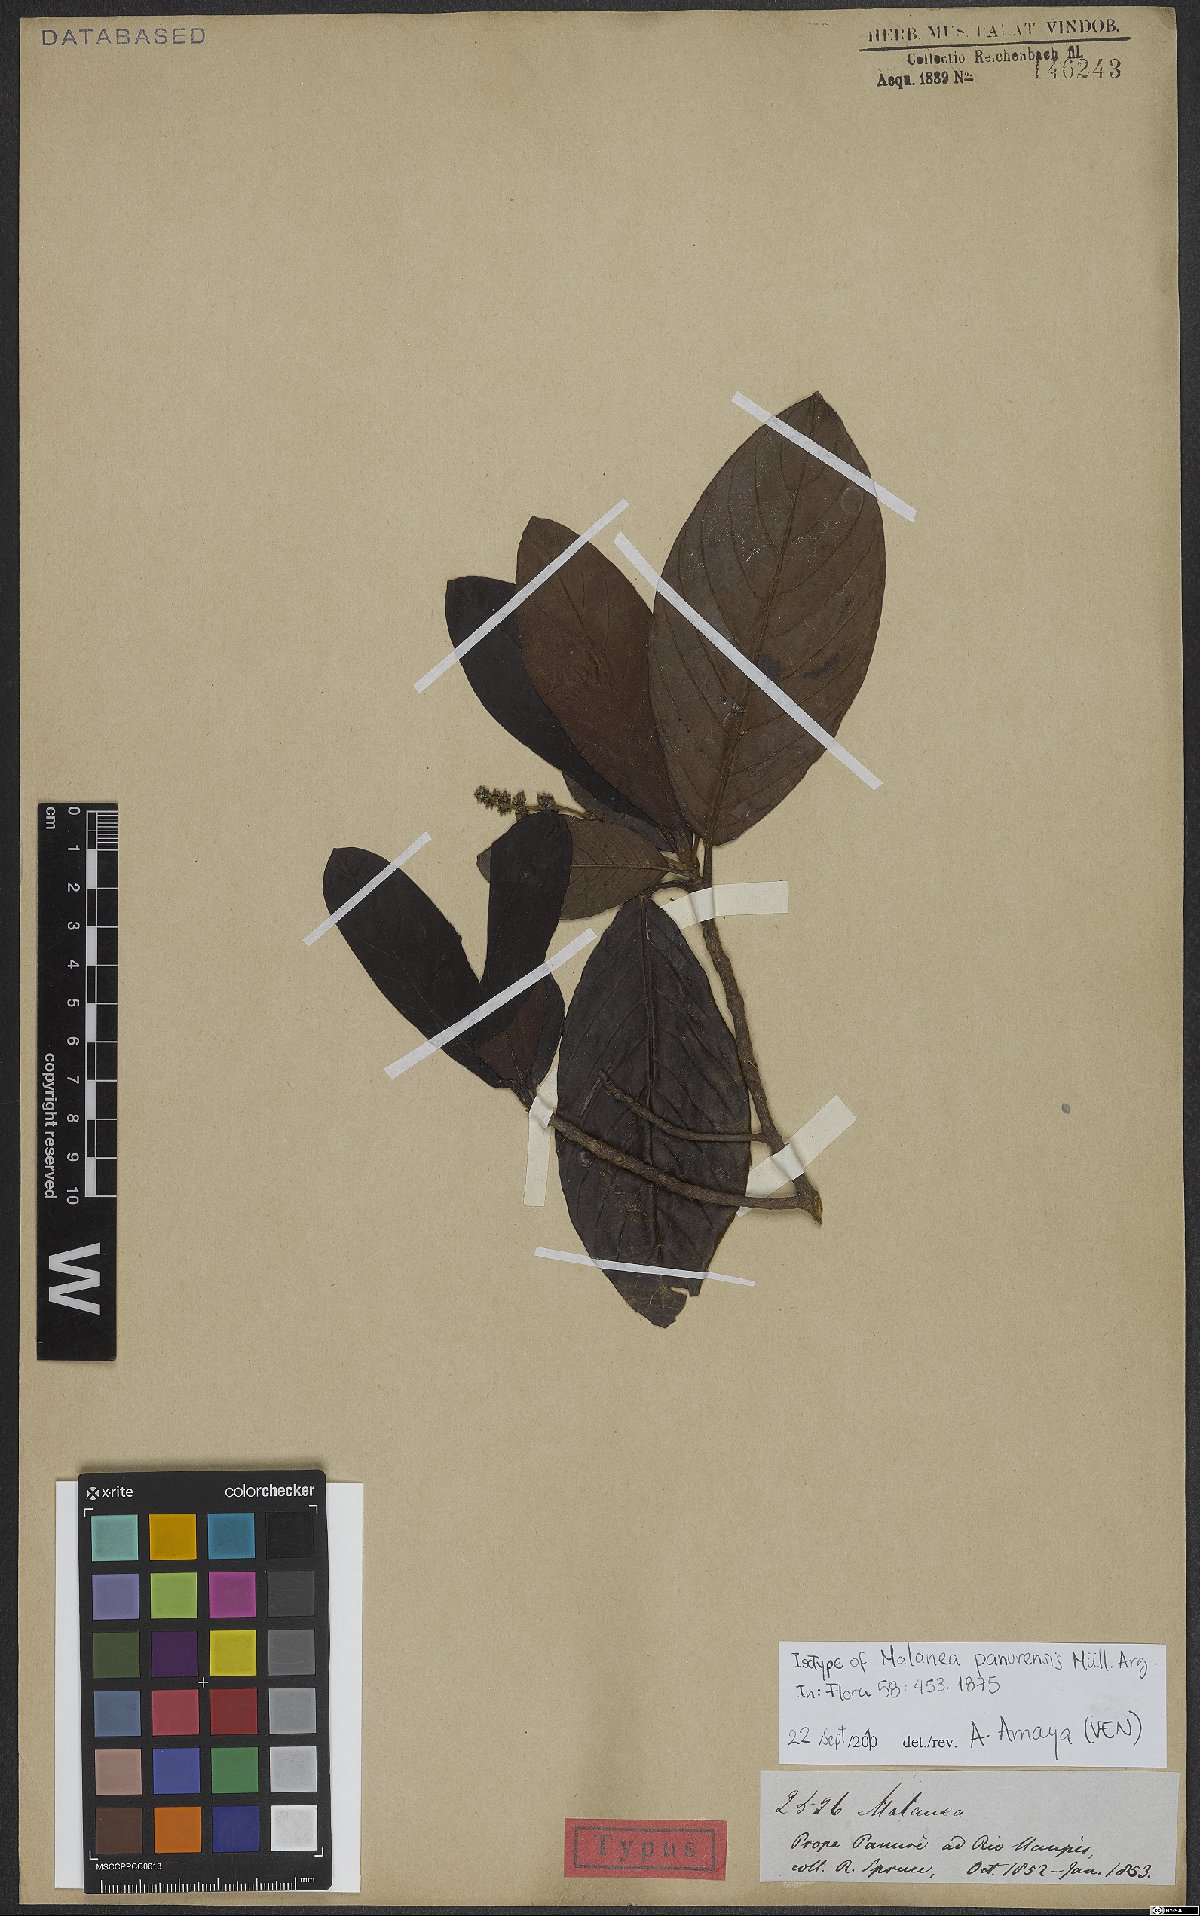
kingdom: Plantae
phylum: Tracheophyta
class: Magnoliopsida
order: Gentianales
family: Rubiaceae
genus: Malanea
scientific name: Malanea panurensis
